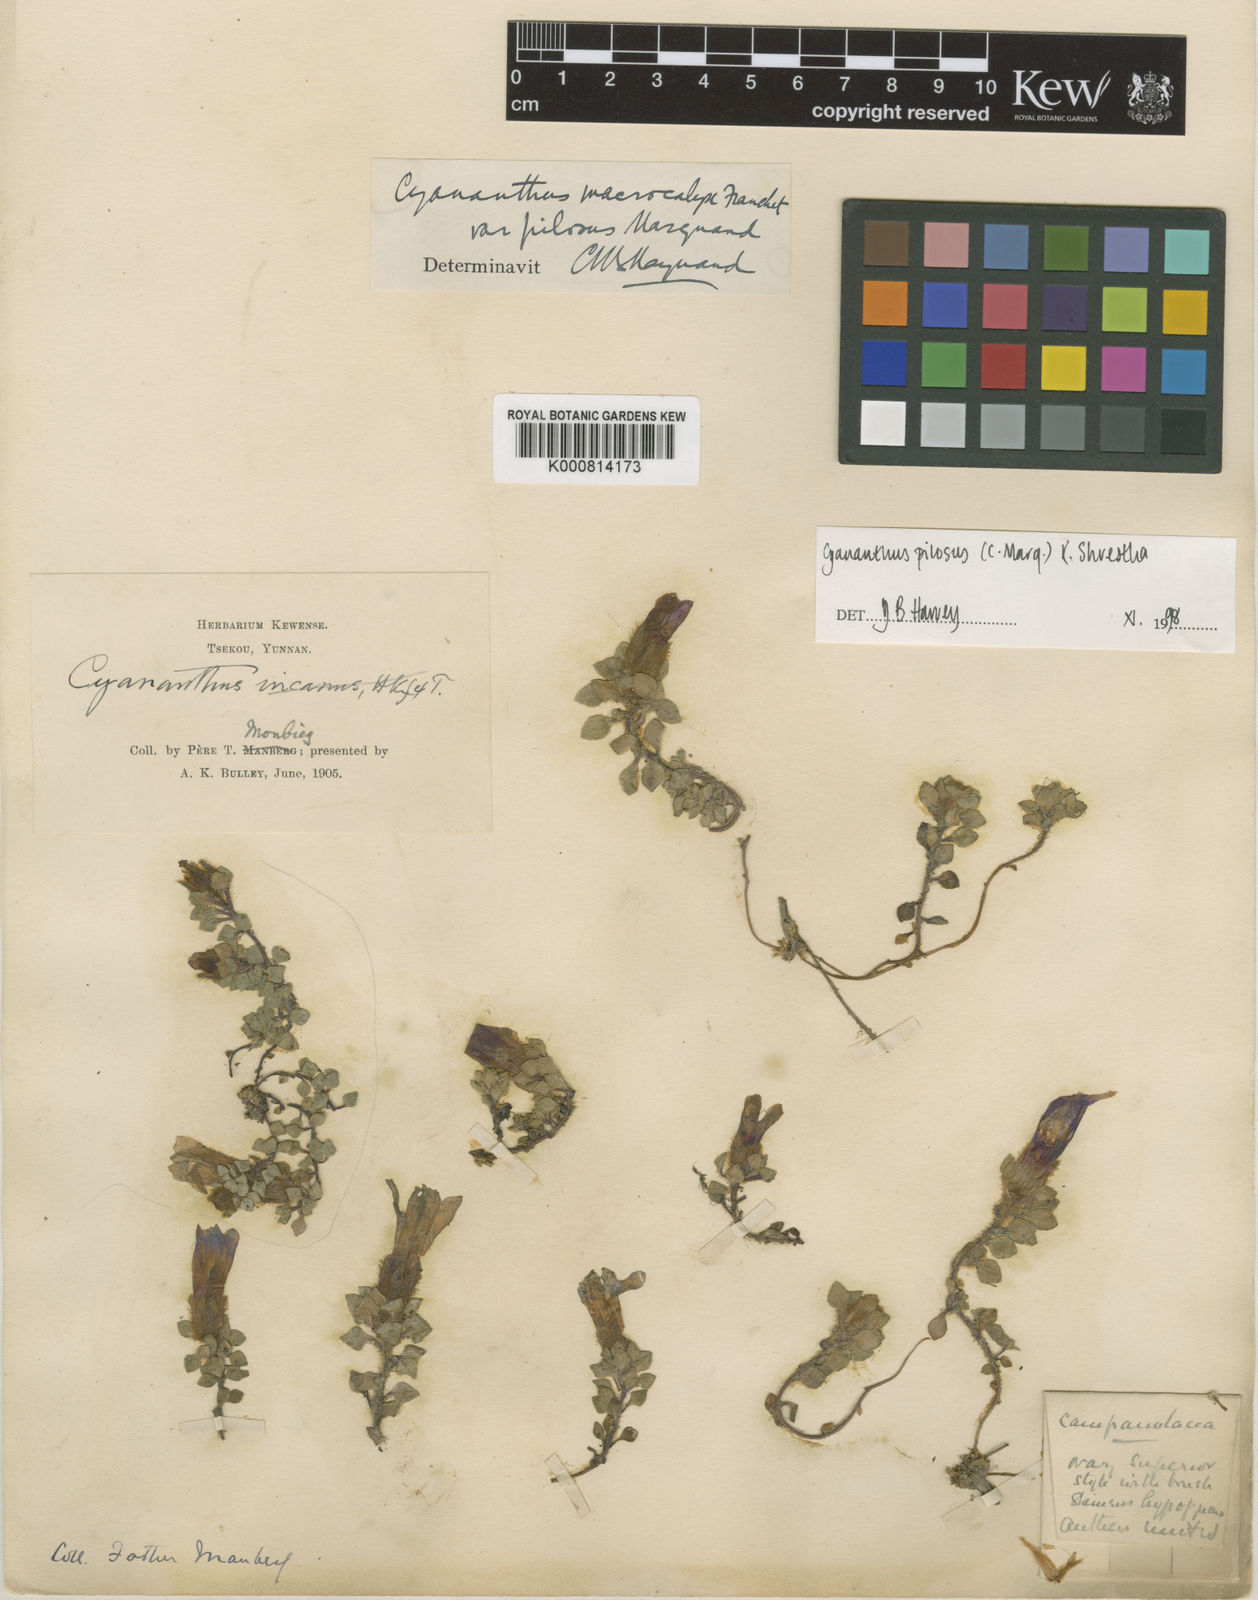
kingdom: Plantae
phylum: Tracheophyta
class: Magnoliopsida
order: Asterales
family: Campanulaceae
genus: Cyananthus
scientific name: Cyananthus macrocalyx
